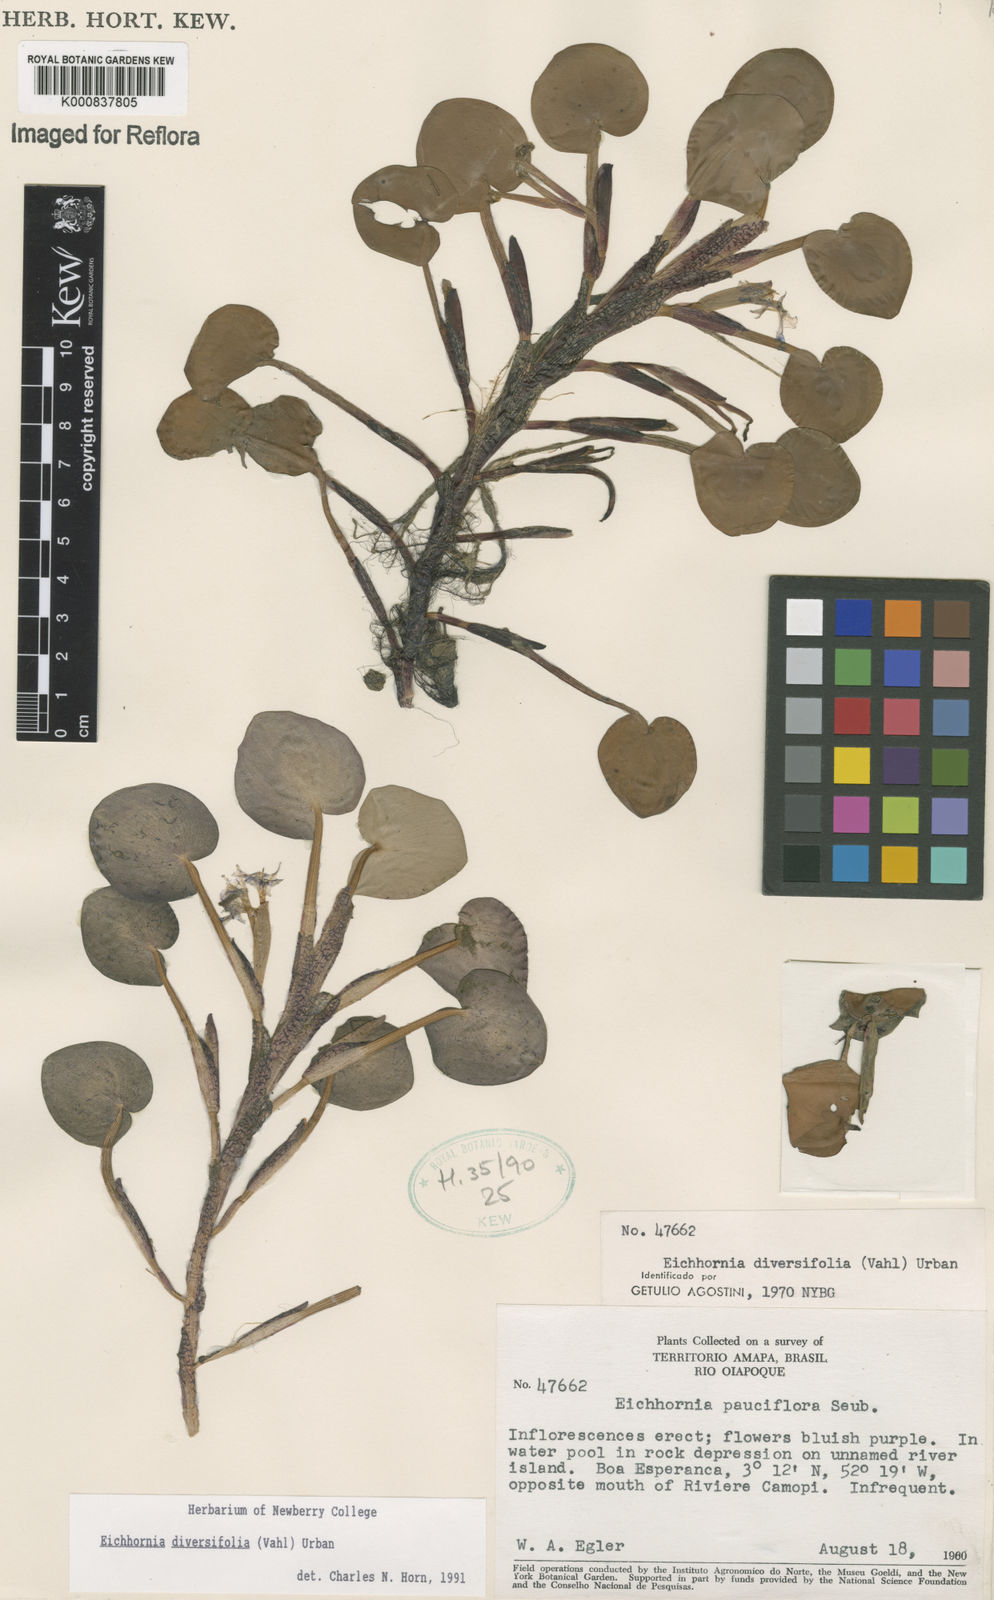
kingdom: Plantae
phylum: Tracheophyta
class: Liliopsida
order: Commelinales
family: Pontederiaceae
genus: Pontederia
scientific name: Pontederia diversifolia
